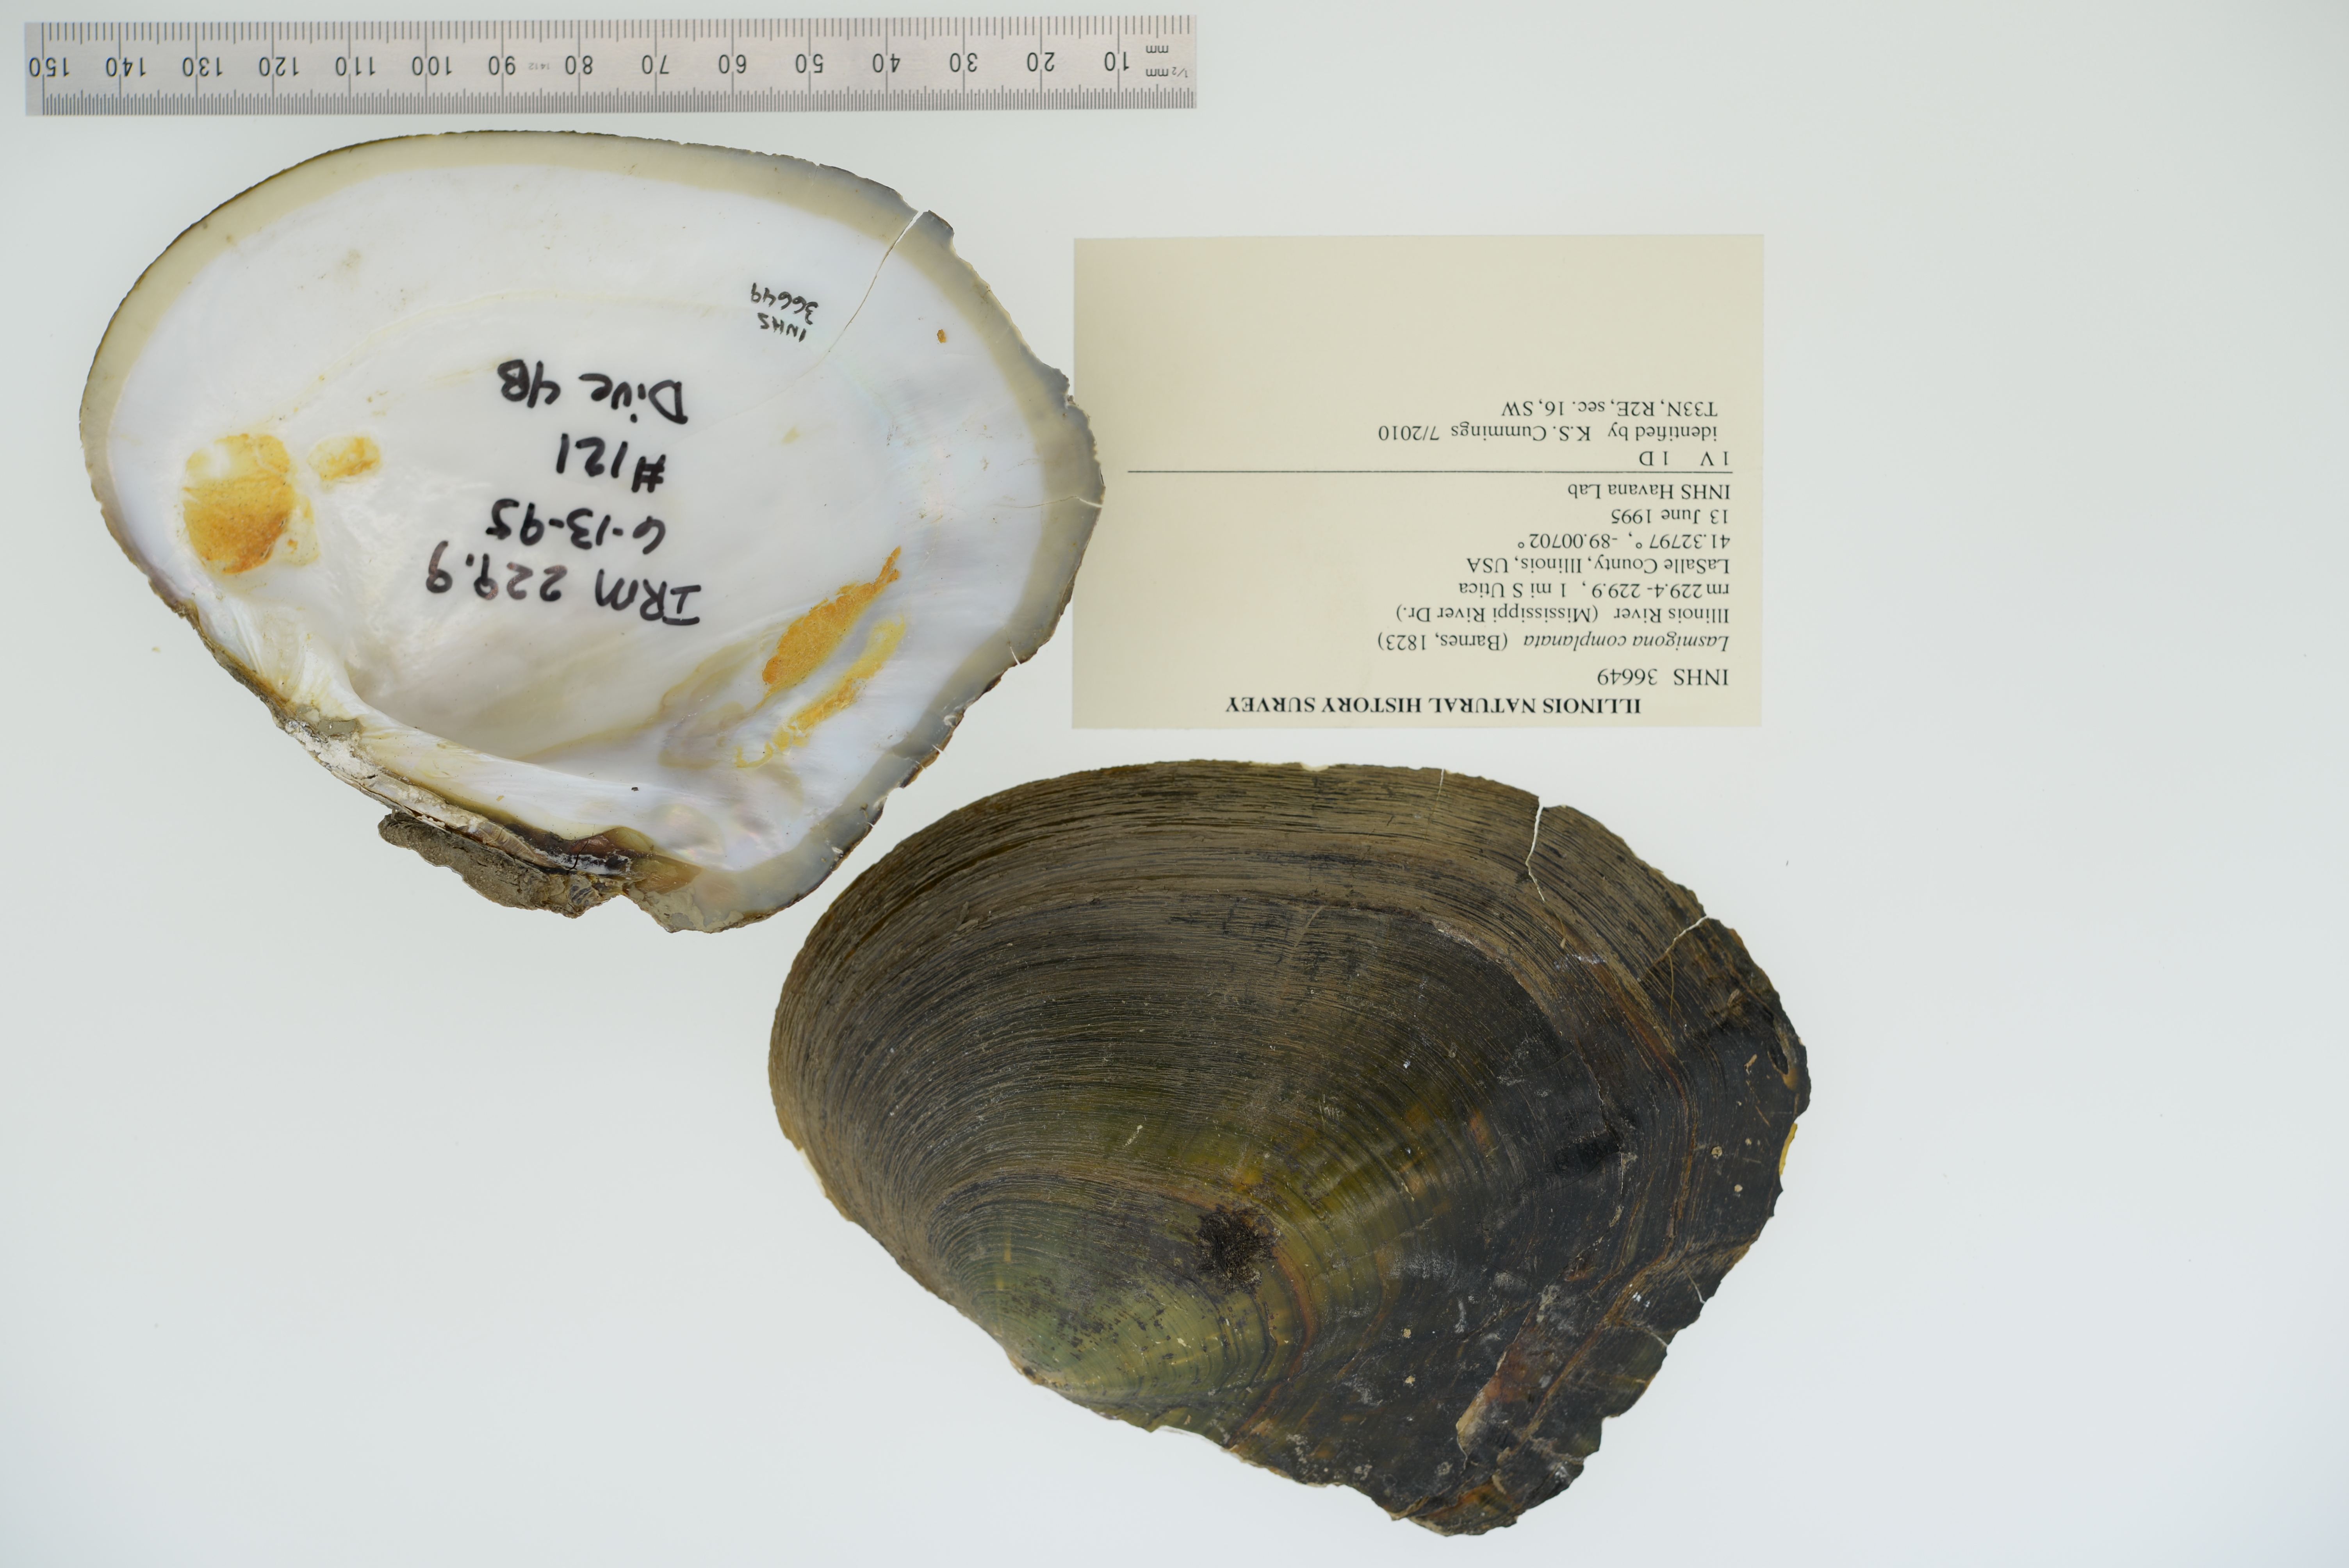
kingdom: Animalia
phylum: Mollusca
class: Bivalvia
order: Unionida
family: Unionidae
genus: Lasmigona
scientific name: Lasmigona complanata
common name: White heelsplitter
